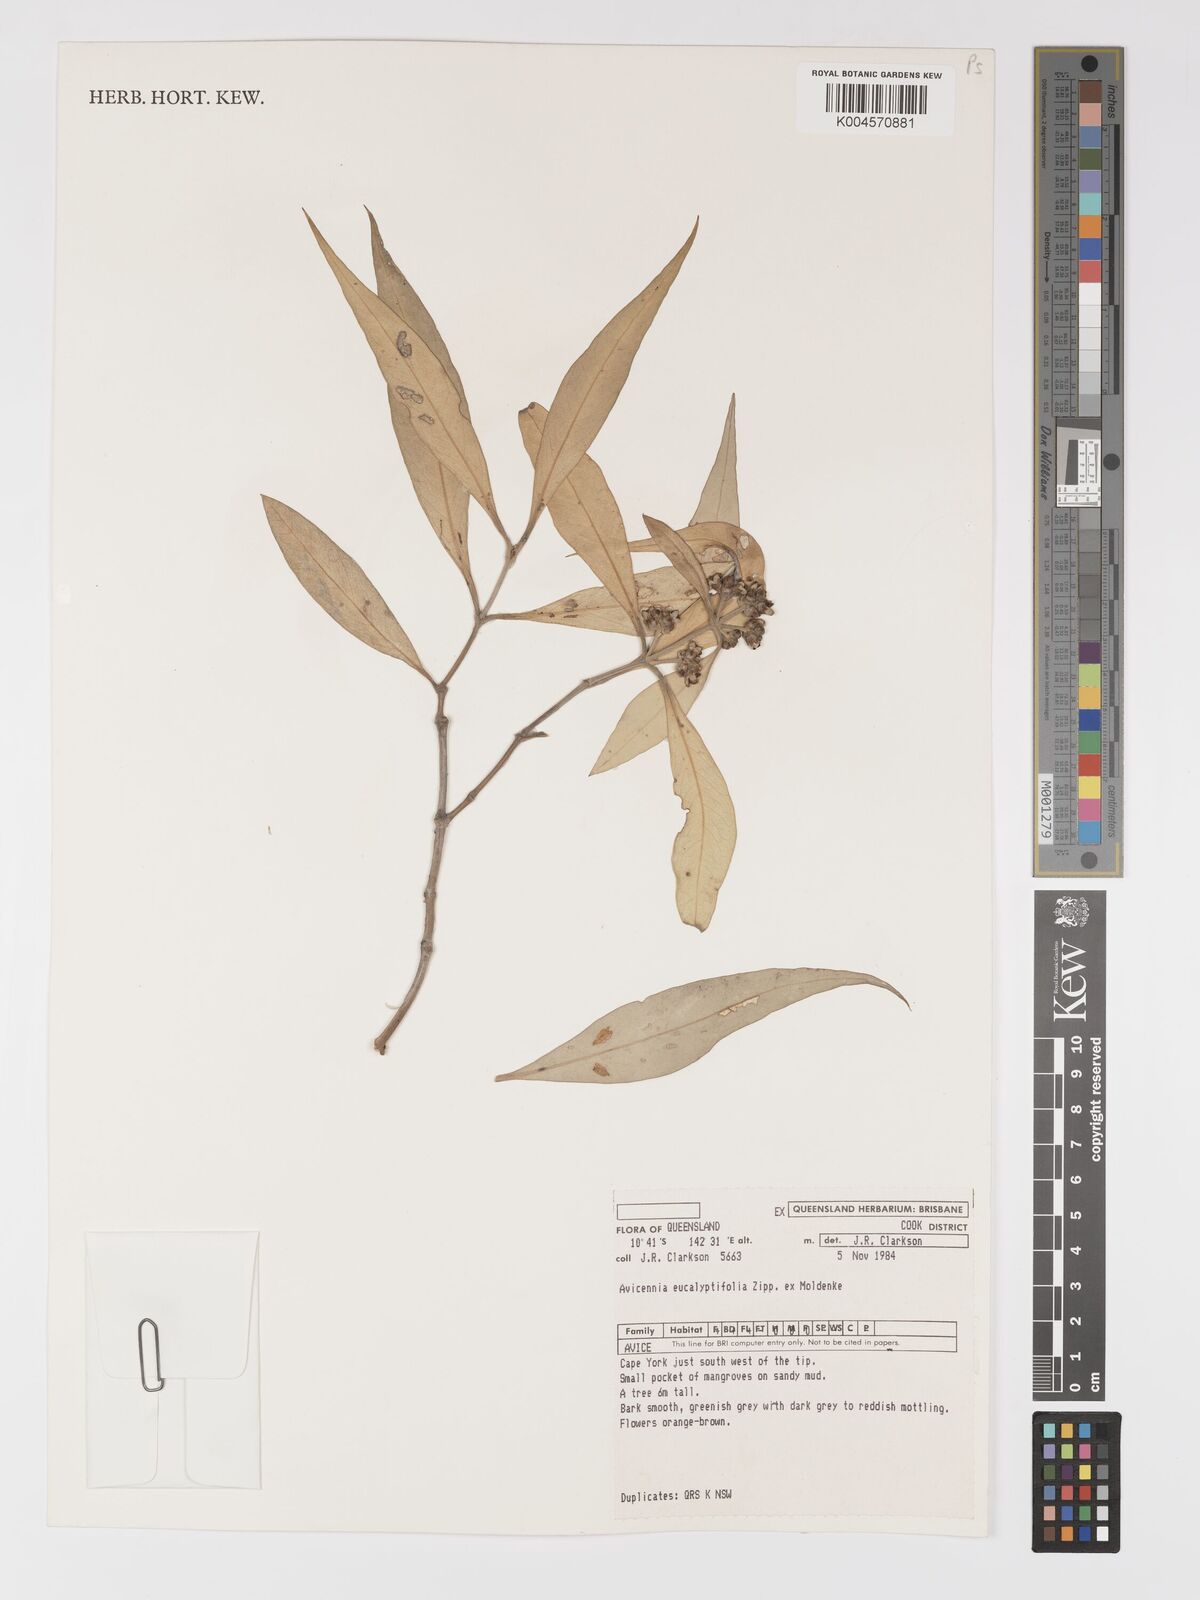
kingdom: Plantae
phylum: Tracheophyta
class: Magnoliopsida
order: Lamiales
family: Acanthaceae
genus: Avicennia
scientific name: Avicennia marina
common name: Gray mangrove
